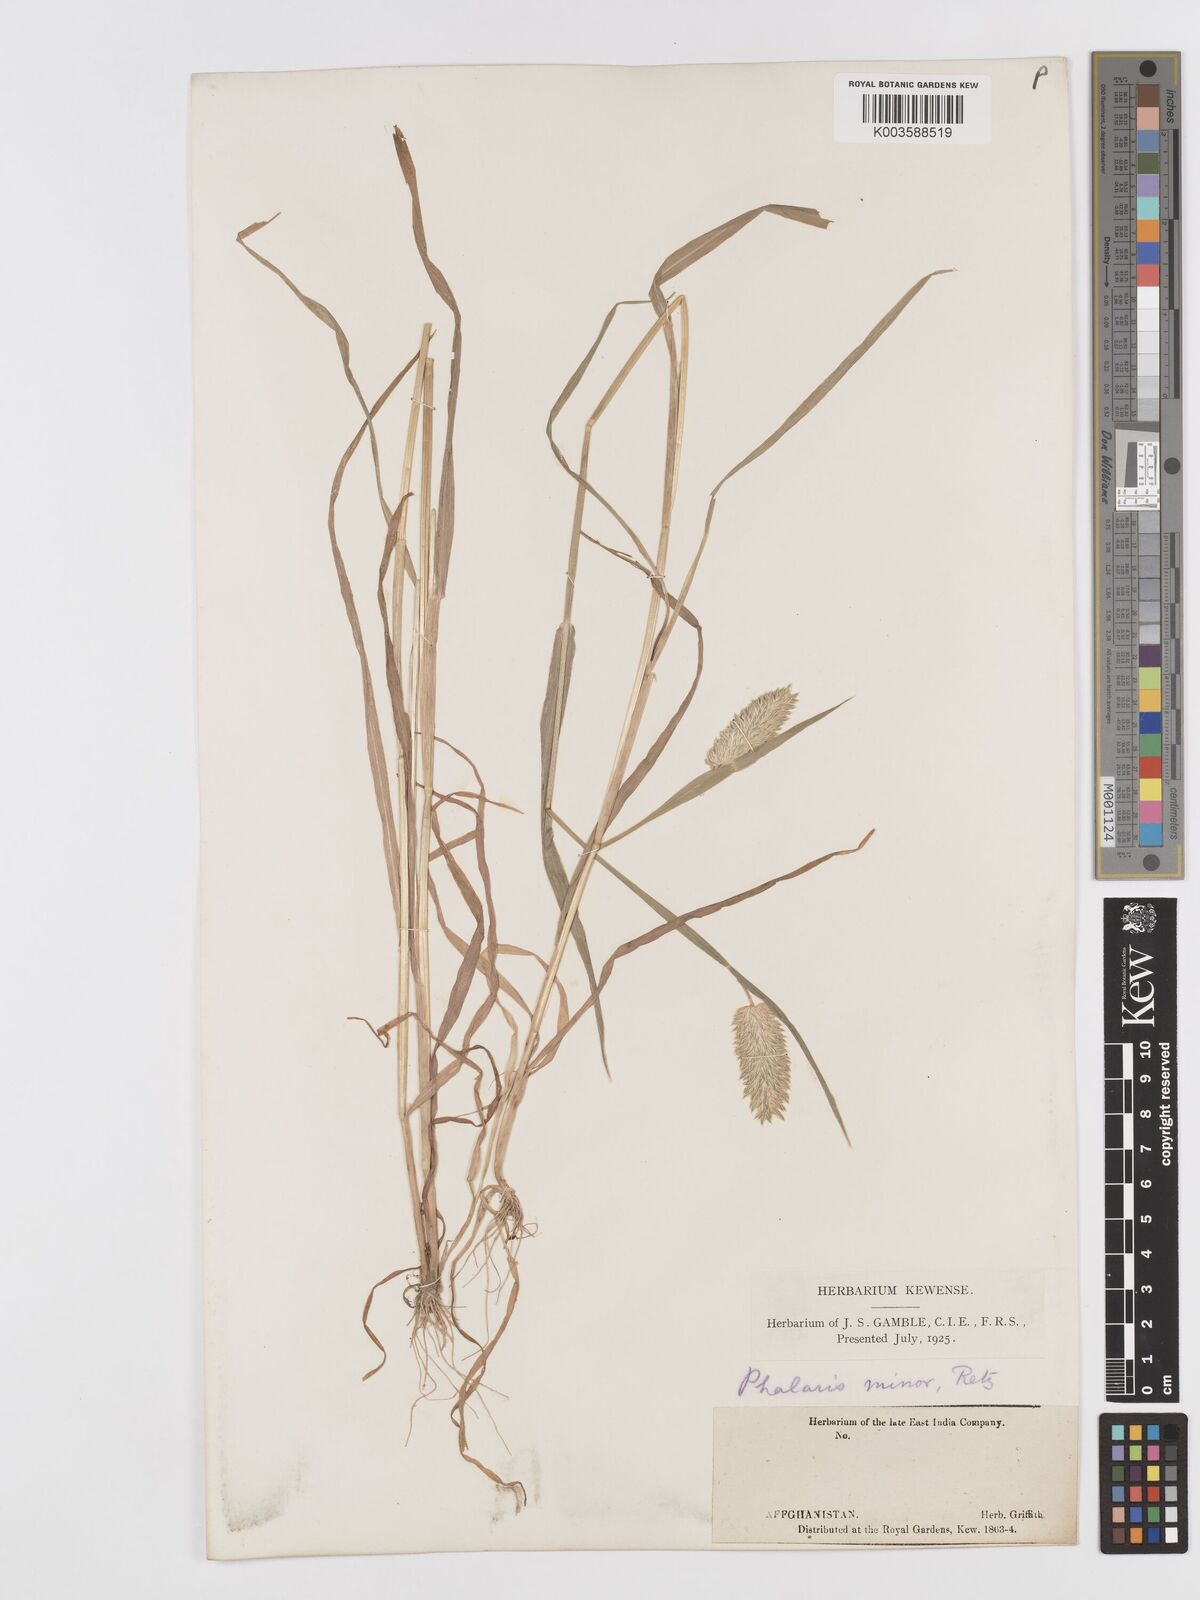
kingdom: Plantae
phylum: Tracheophyta
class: Liliopsida
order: Poales
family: Poaceae
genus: Phalaris
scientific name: Phalaris minor
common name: Littleseed canarygrass
